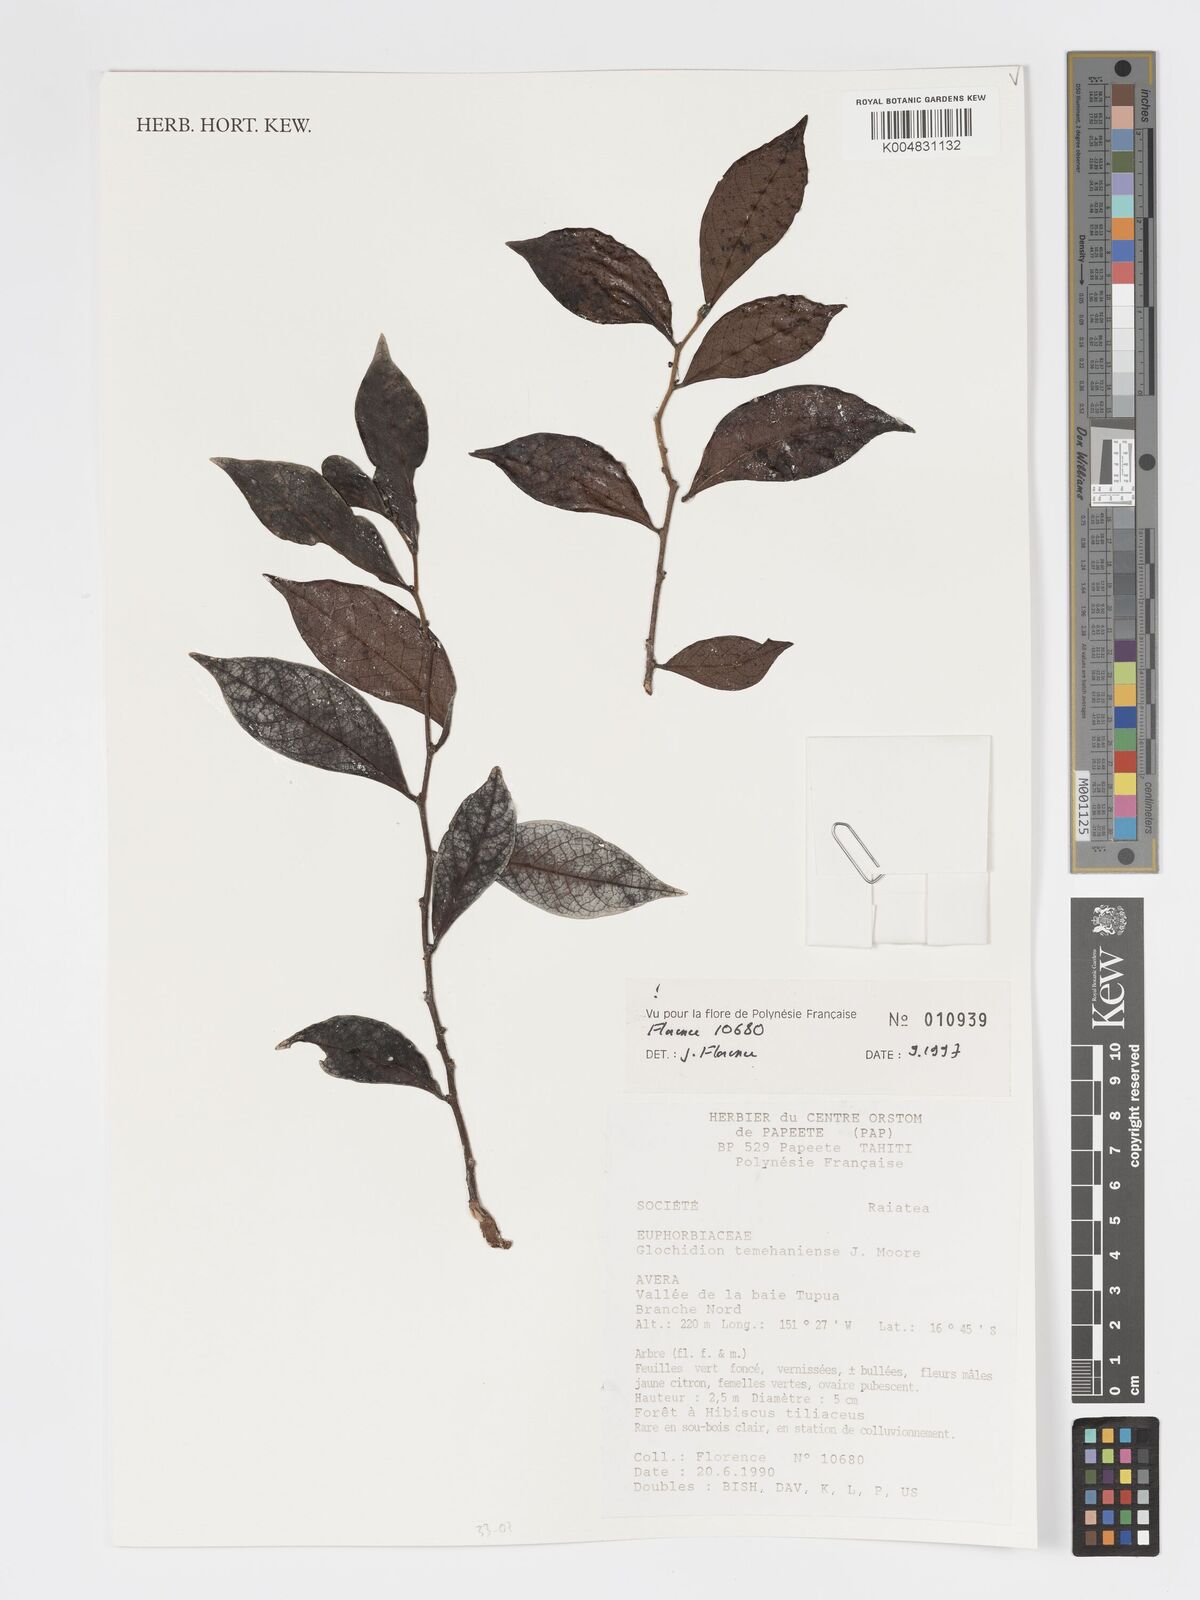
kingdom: Plantae
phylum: Tracheophyta
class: Magnoliopsida
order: Malpighiales
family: Phyllanthaceae
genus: Glochidion
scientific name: Glochidion temehaniense
